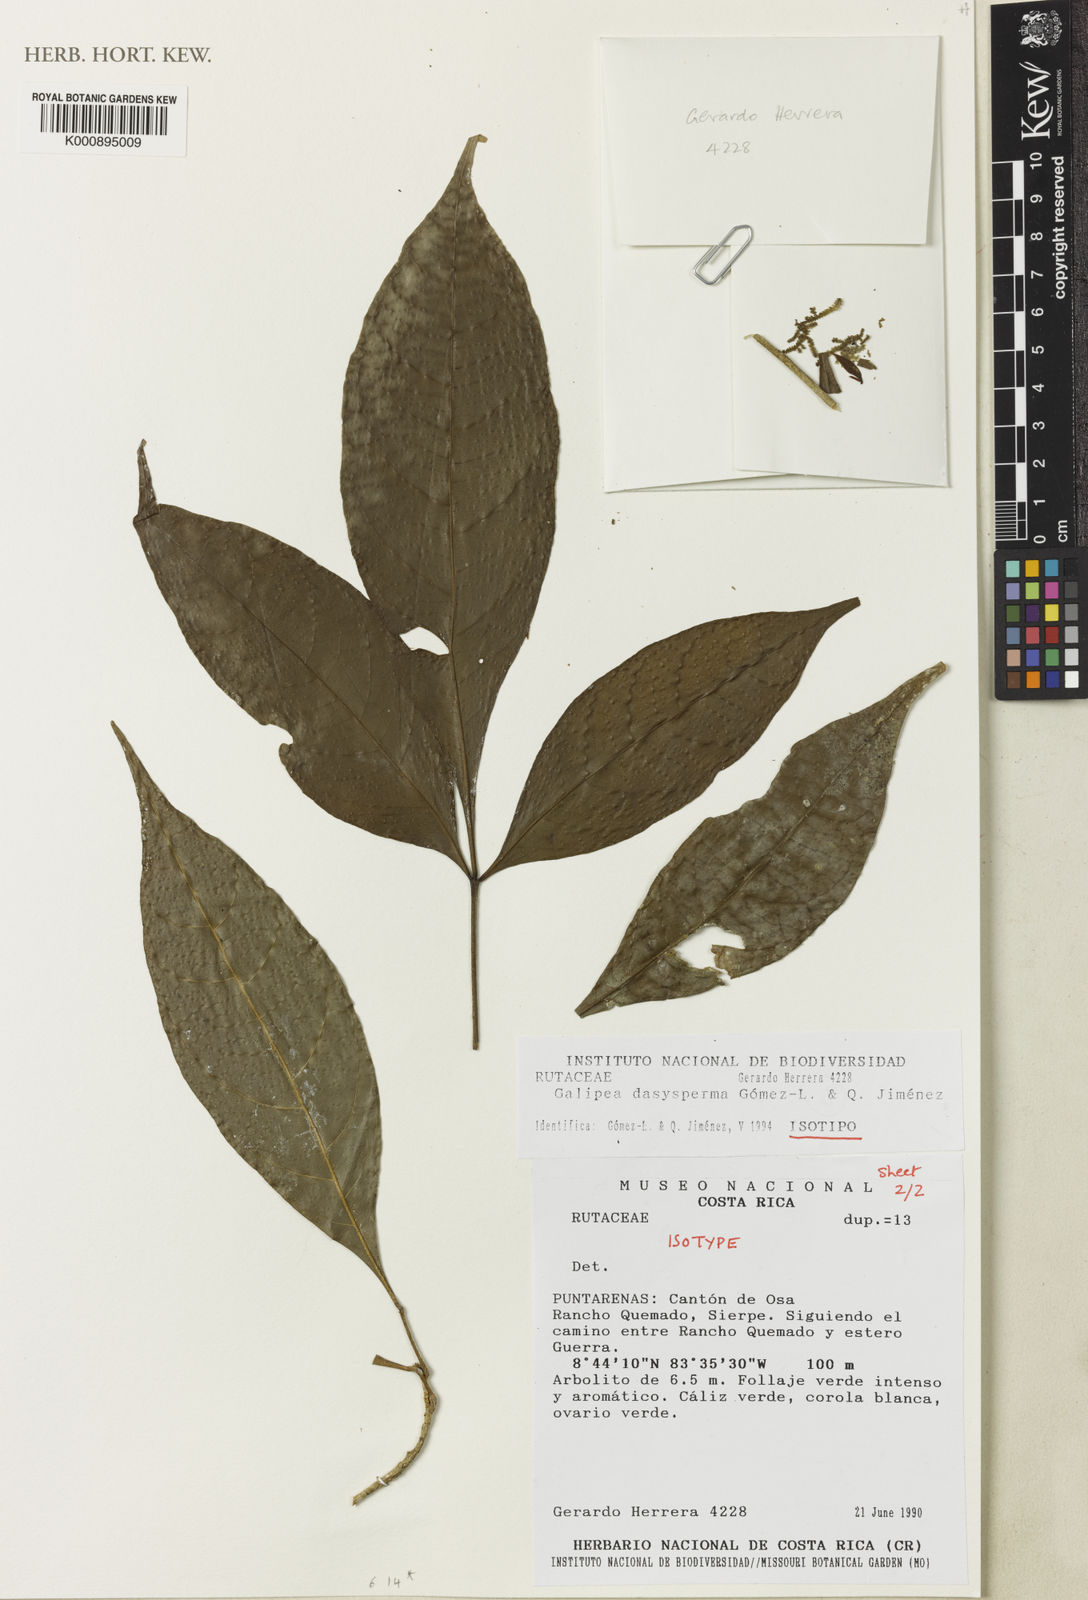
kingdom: Plantae
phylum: Tracheophyta
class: Magnoliopsida
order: Sapindales
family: Rutaceae
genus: Galipea
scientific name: Galipea
